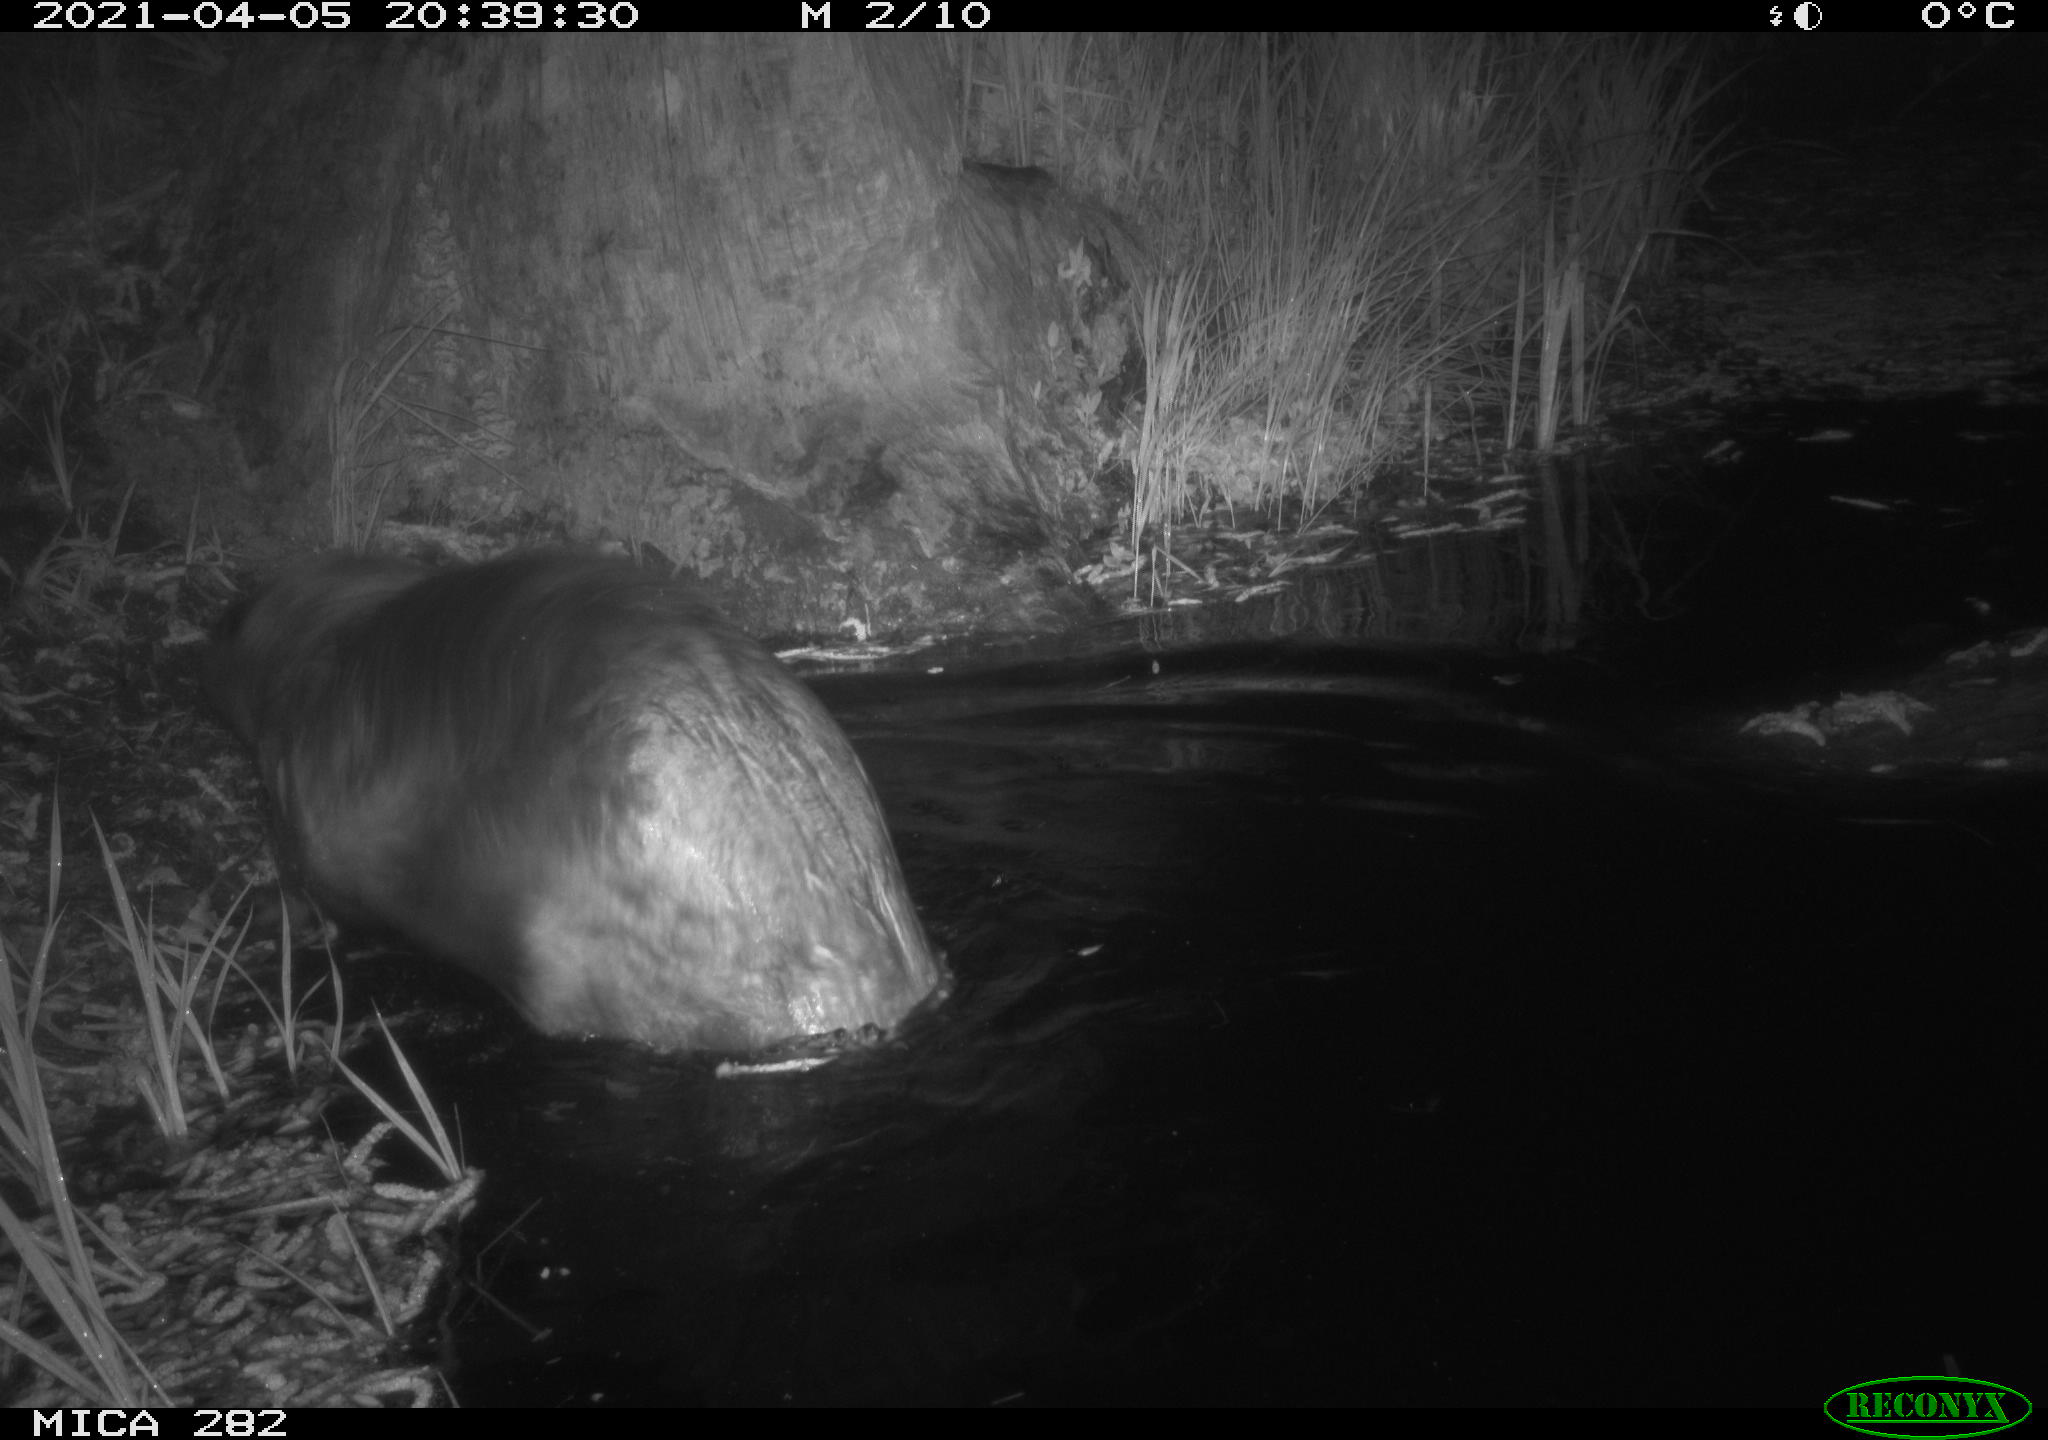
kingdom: Animalia
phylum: Chordata
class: Mammalia
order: Rodentia
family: Castoridae
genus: Castor
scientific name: Castor fiber
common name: Eurasian beaver
